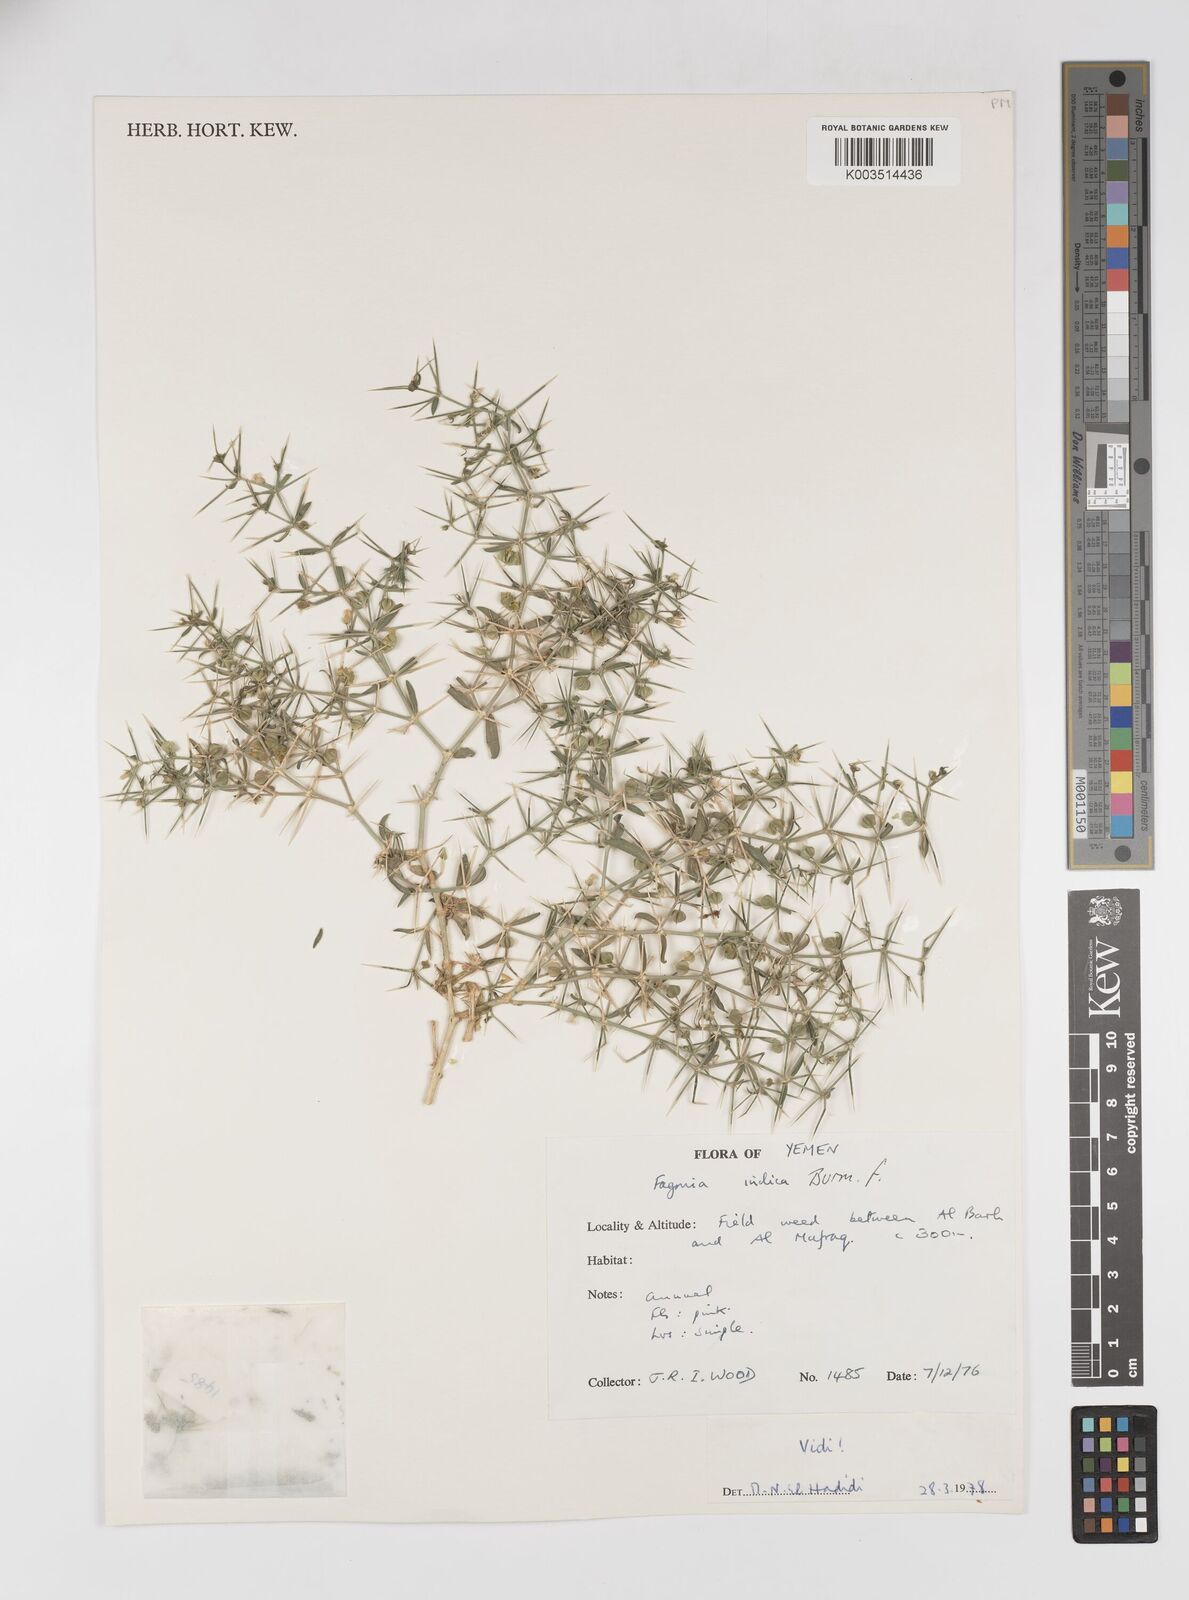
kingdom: Plantae
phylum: Tracheophyta
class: Magnoliopsida
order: Zygophyllales
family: Zygophyllaceae
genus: Fagonia
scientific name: Fagonia indica
